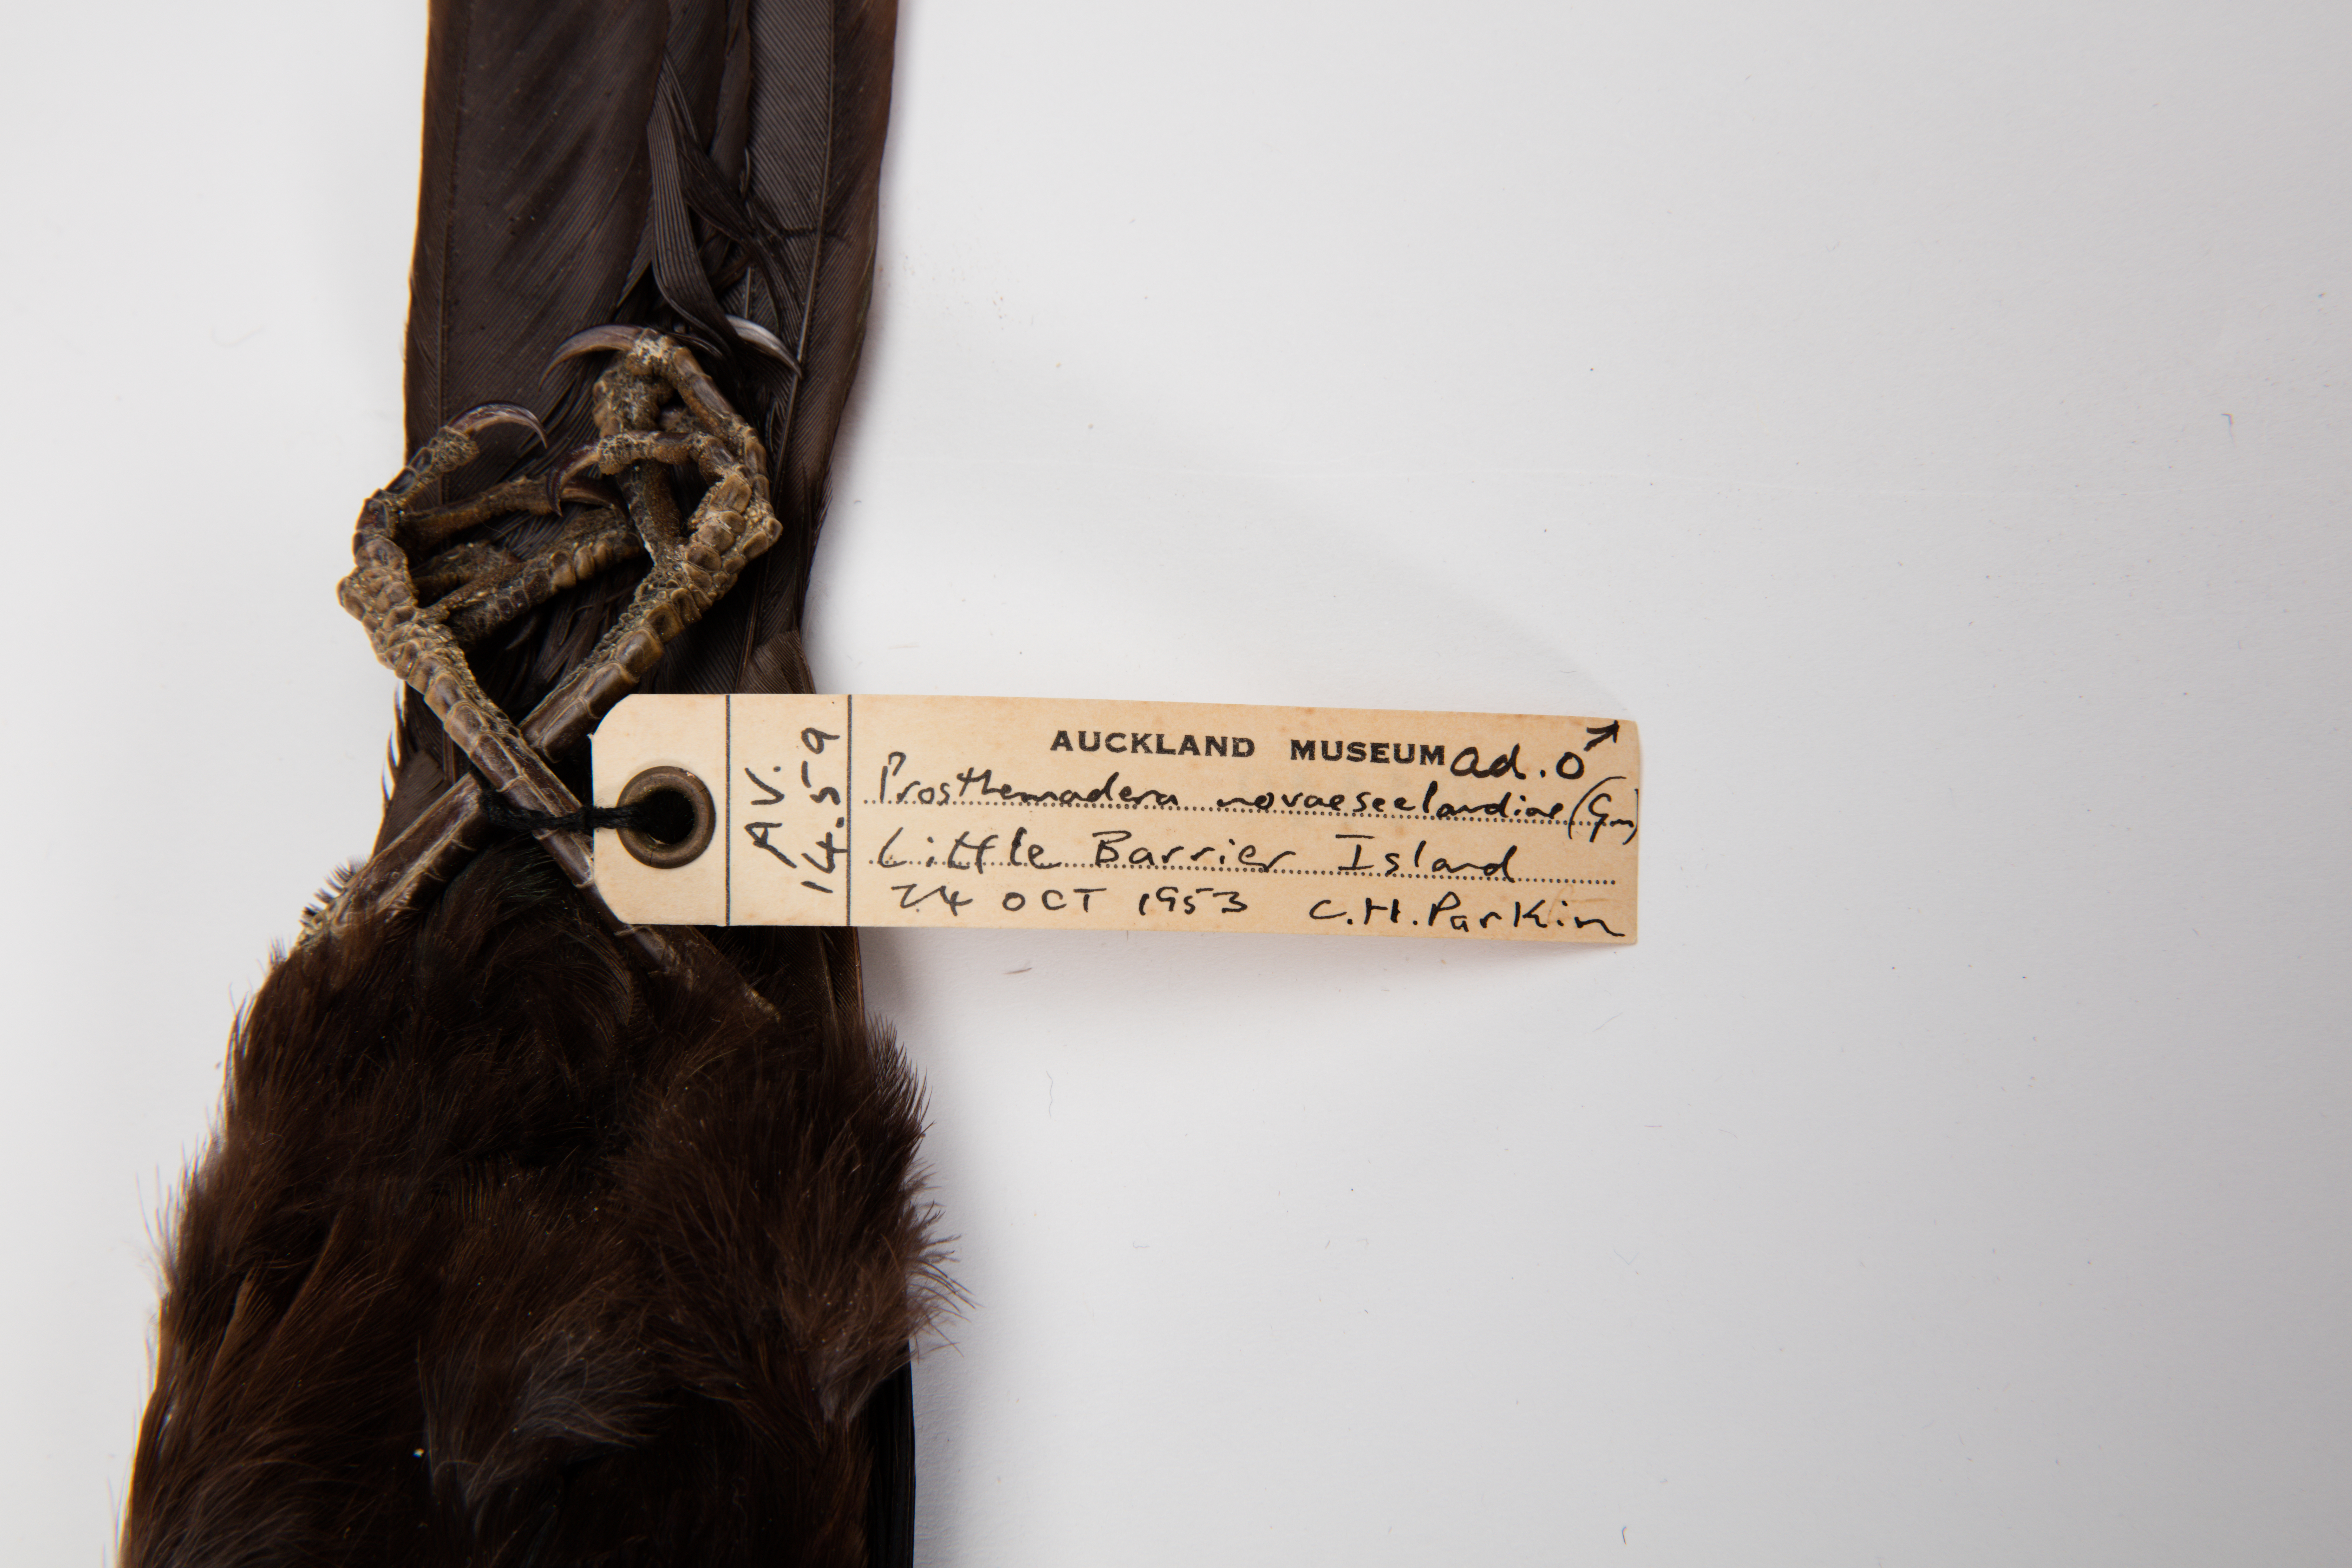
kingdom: Animalia
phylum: Chordata
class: Aves
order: Passeriformes
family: Meliphagidae
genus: Prosthemadera
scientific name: Prosthemadera novaeseelandiae
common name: Tui
